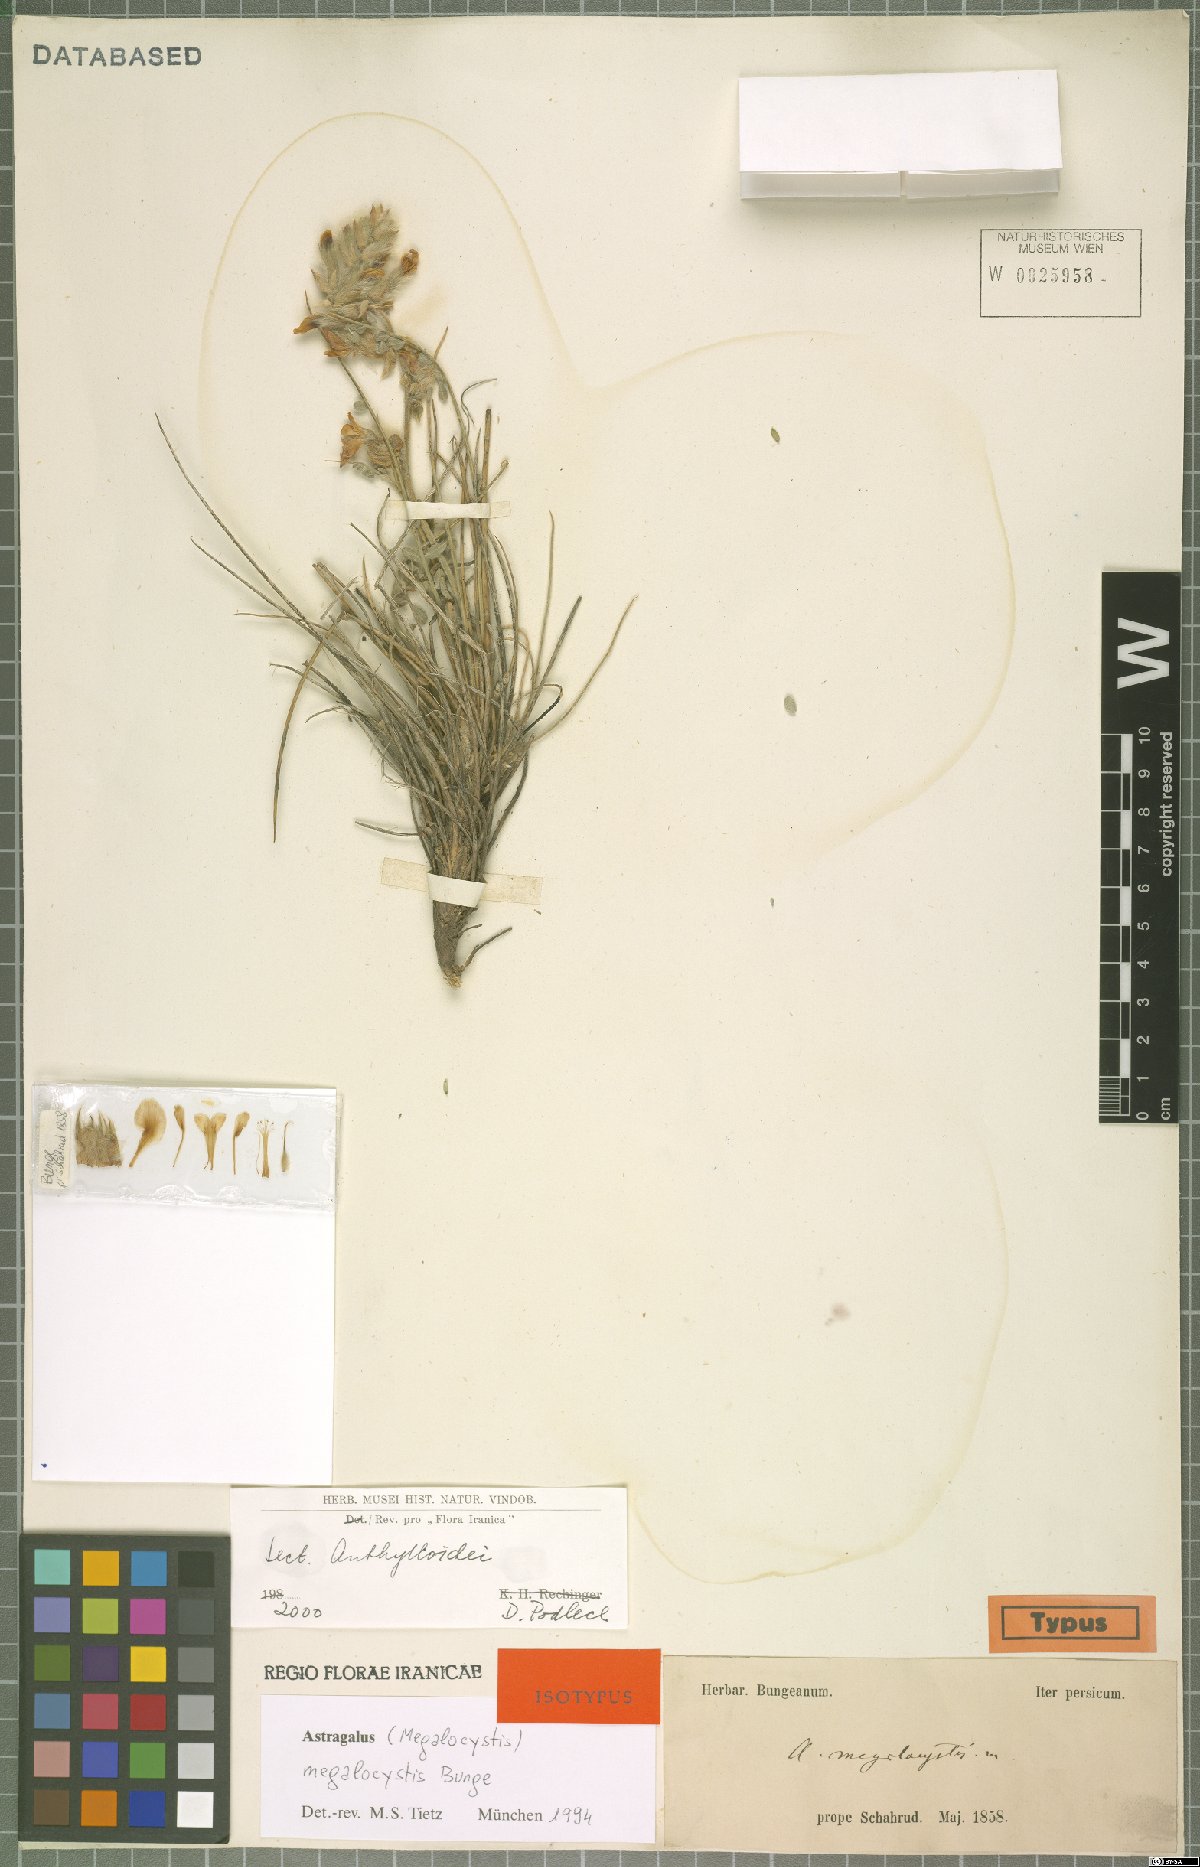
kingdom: Plantae
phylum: Tracheophyta
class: Magnoliopsida
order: Fabales
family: Fabaceae
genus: Astragalus
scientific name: Astragalus megalocystis
